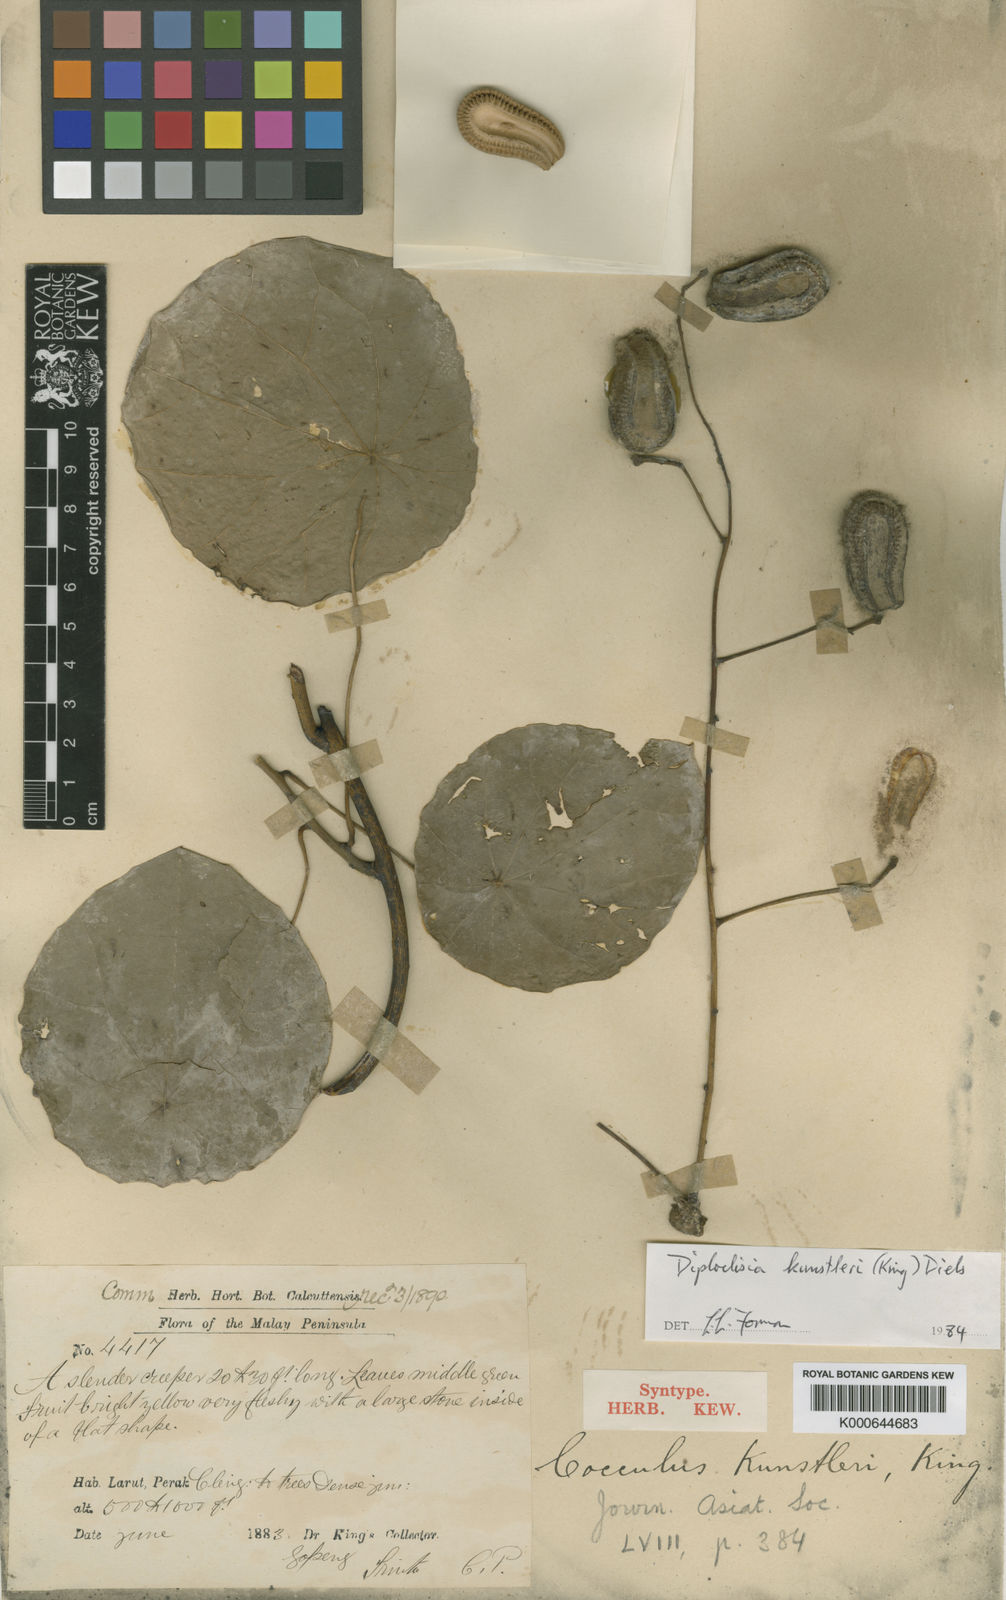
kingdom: Plantae
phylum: Tracheophyta
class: Magnoliopsida
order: Ranunculales
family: Menispermaceae
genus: Diploclisia
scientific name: Diploclisia glaucescens
